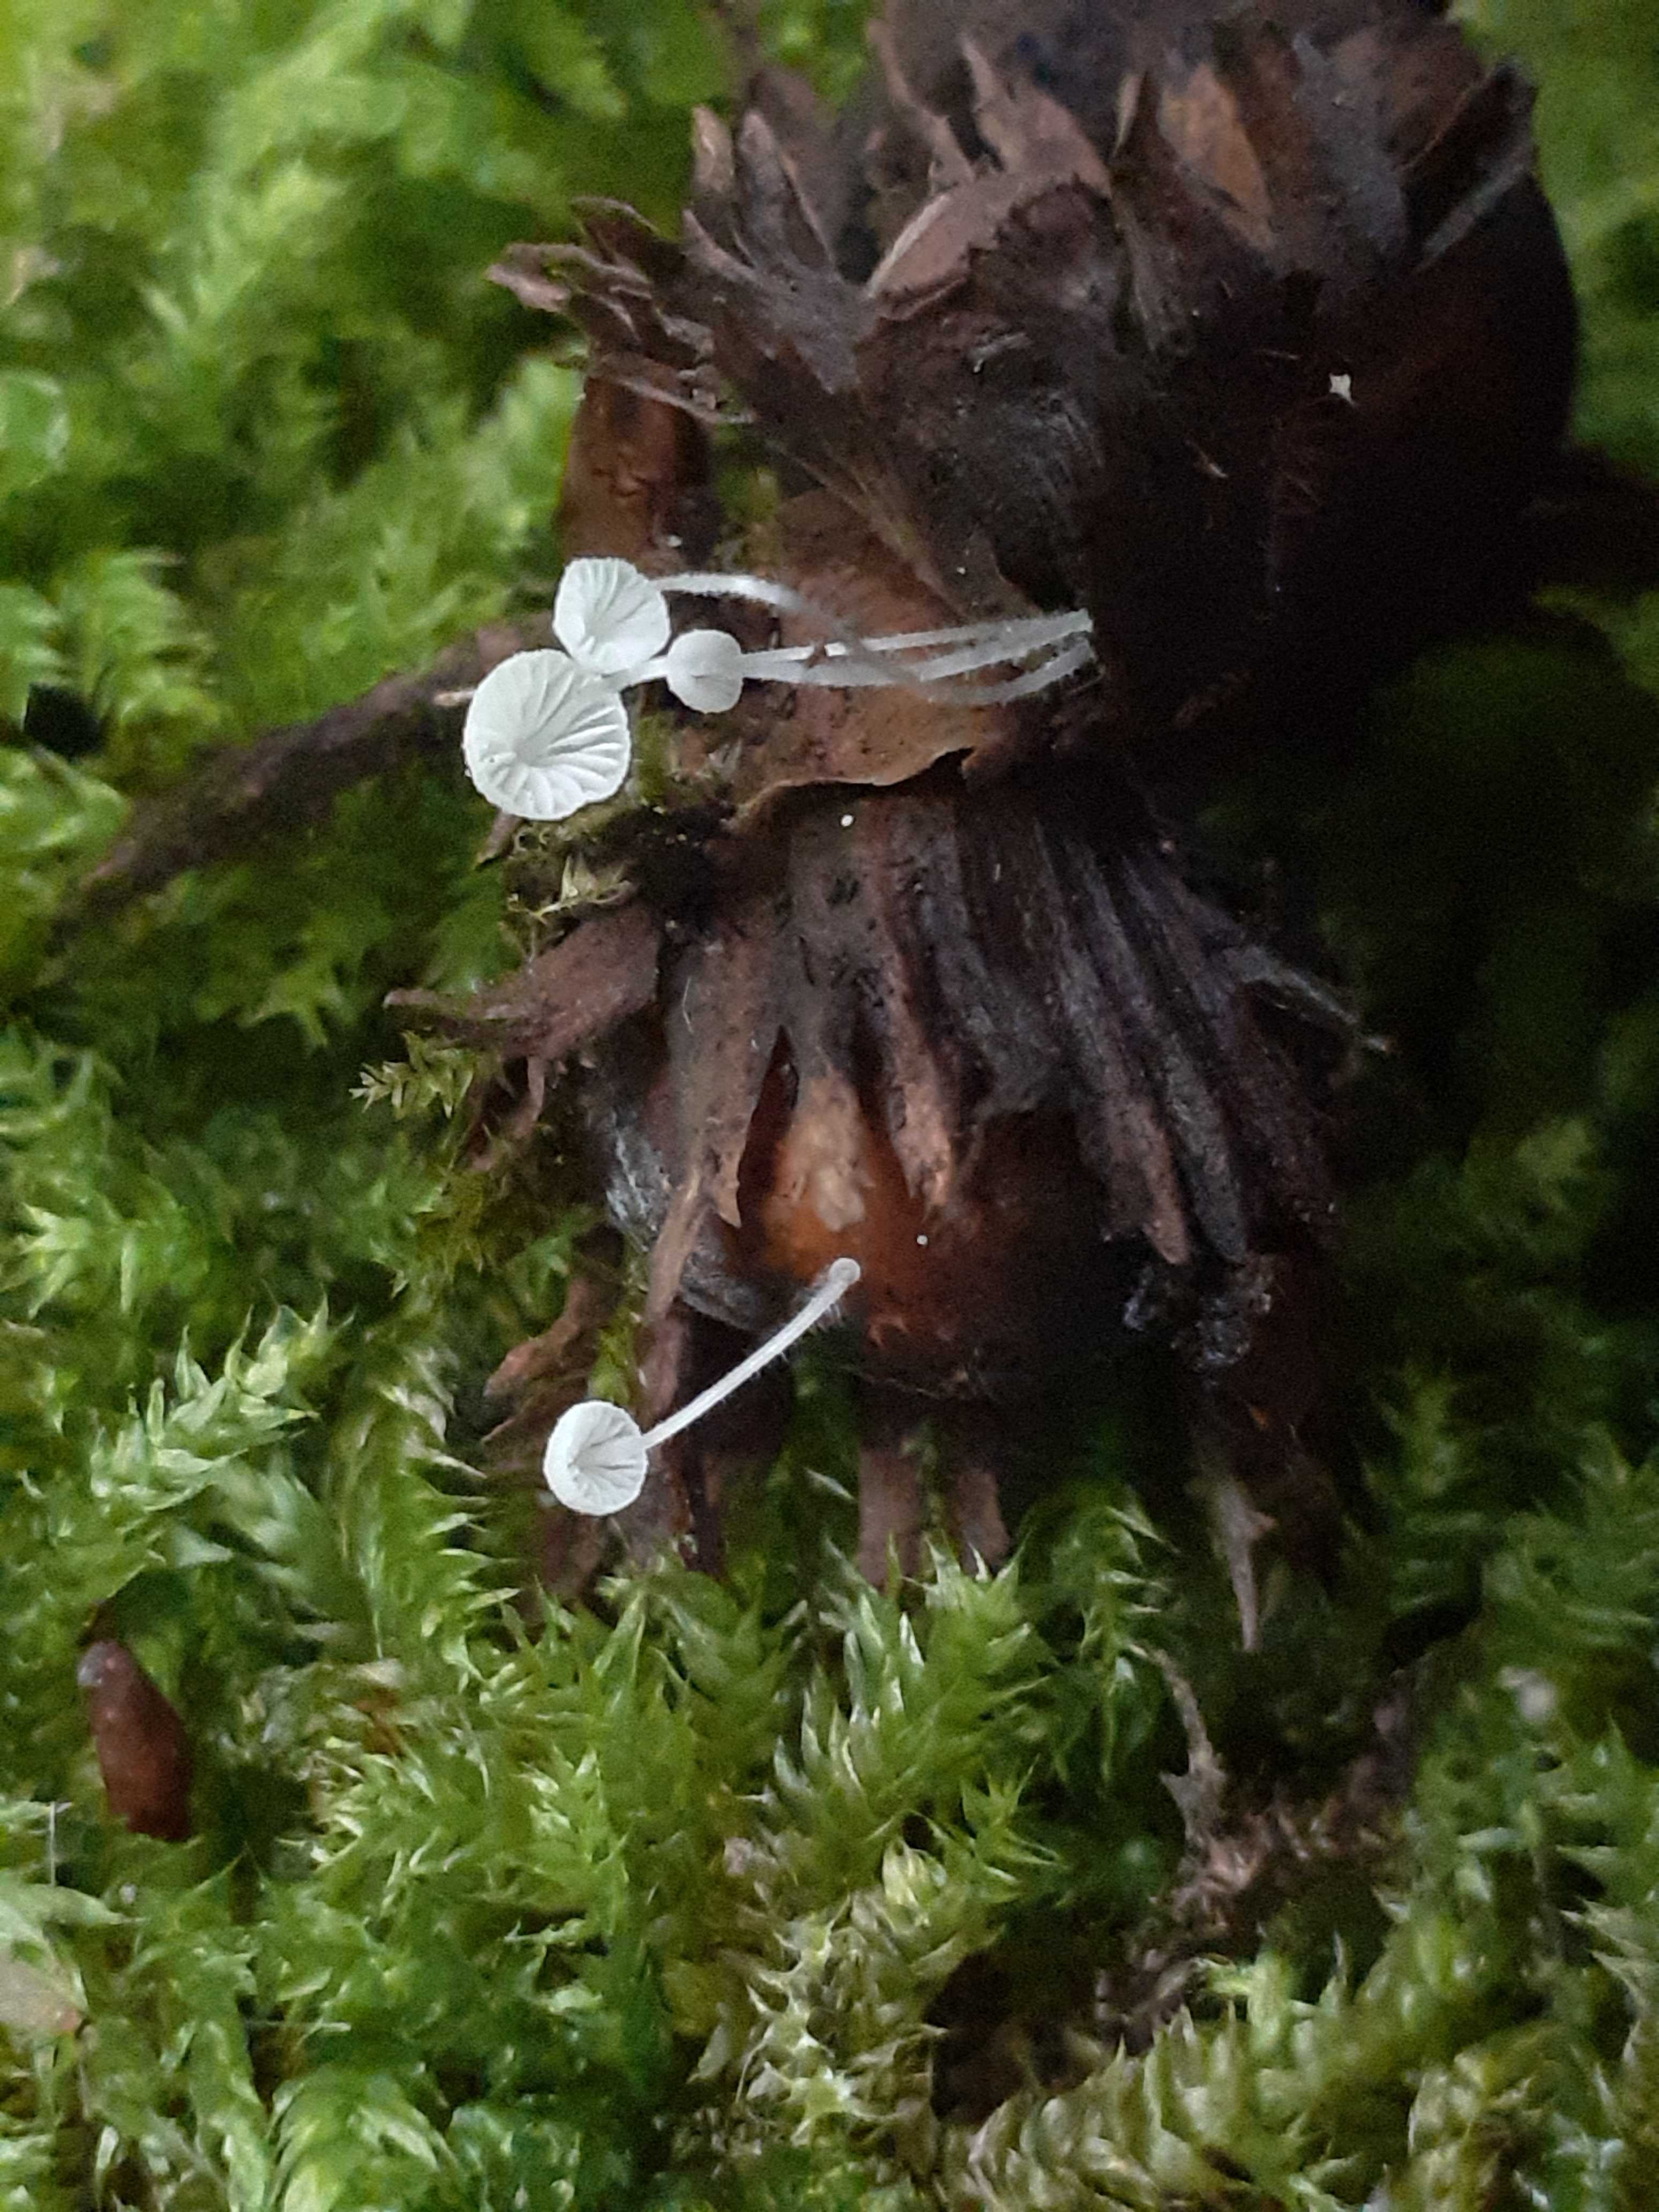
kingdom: Fungi
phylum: Basidiomycota
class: Agaricomycetes
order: Agaricales
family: Mycenaceae
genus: Mycena
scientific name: Mycena tenerrima
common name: pudret huesvamp
